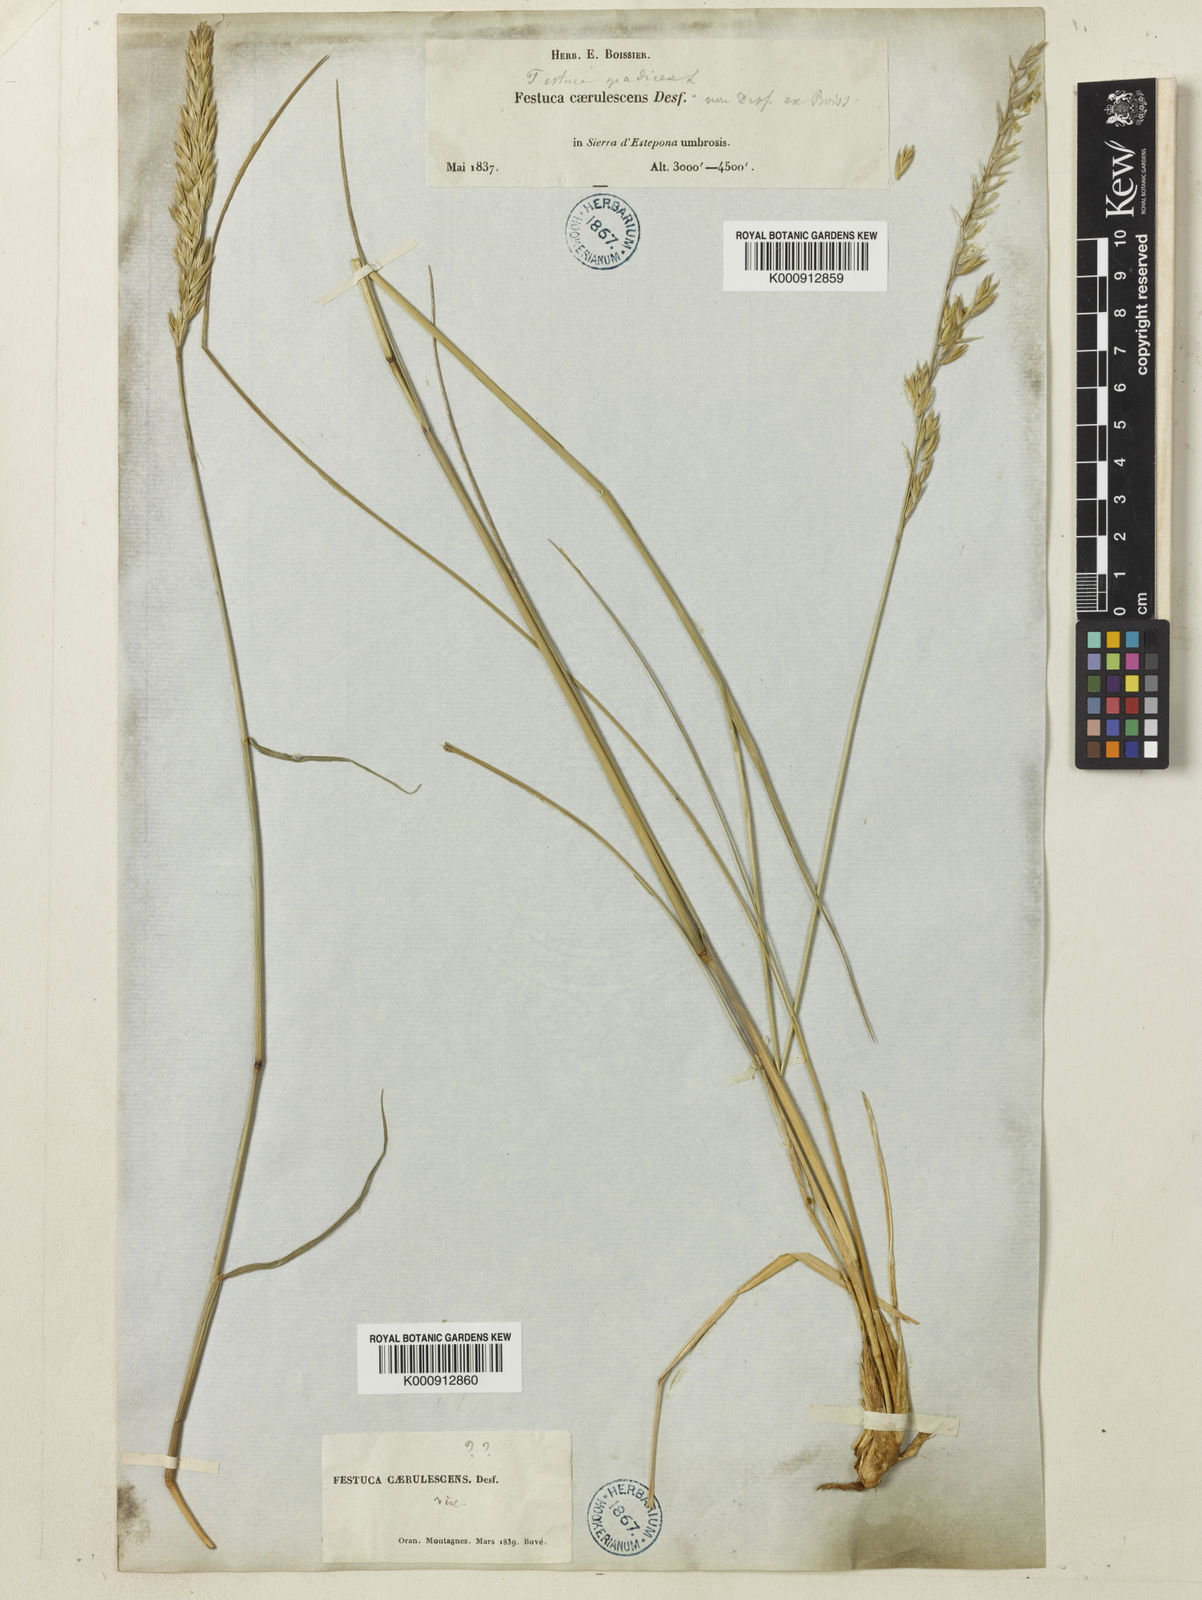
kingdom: Plantae
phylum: Tracheophyta
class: Liliopsida
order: Poales
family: Poaceae
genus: Patzkea
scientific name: Patzkea paniculata
